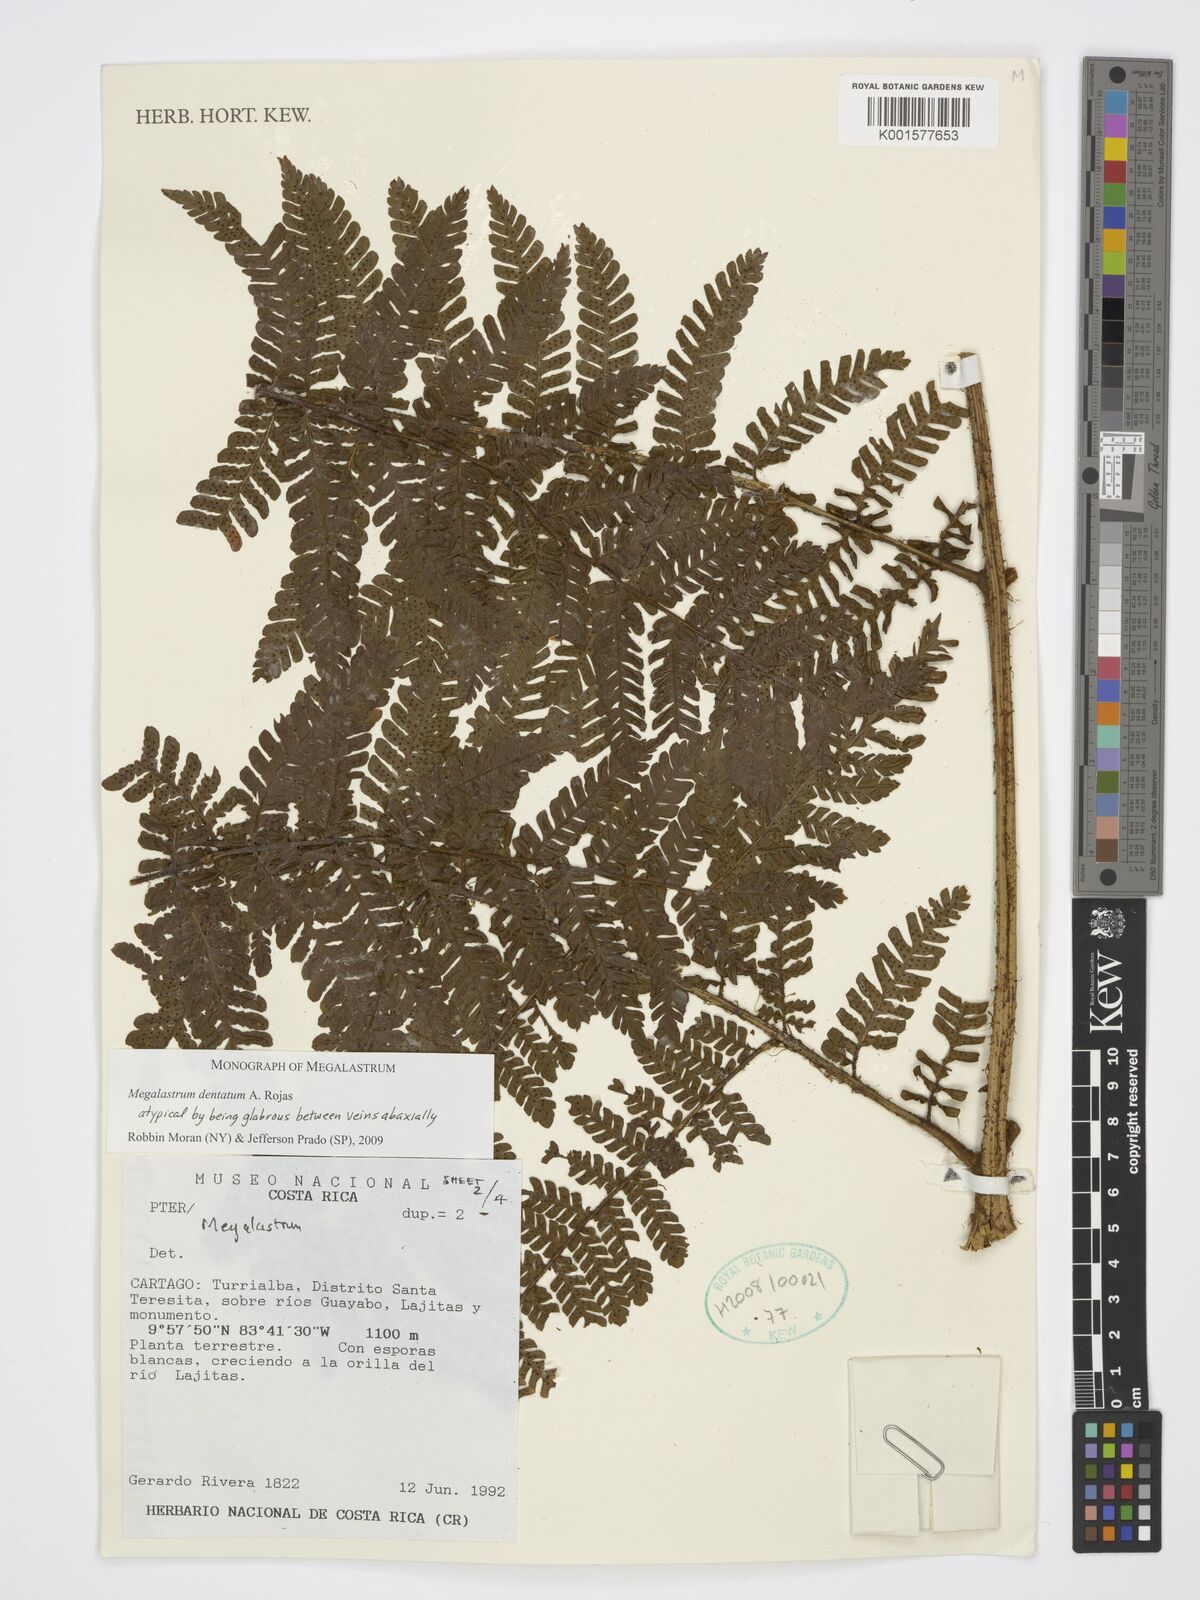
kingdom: Plantae
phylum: Tracheophyta
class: Polypodiopsida
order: Polypodiales
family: Dryopteridaceae
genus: Megalastrum
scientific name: Megalastrum dentatum
